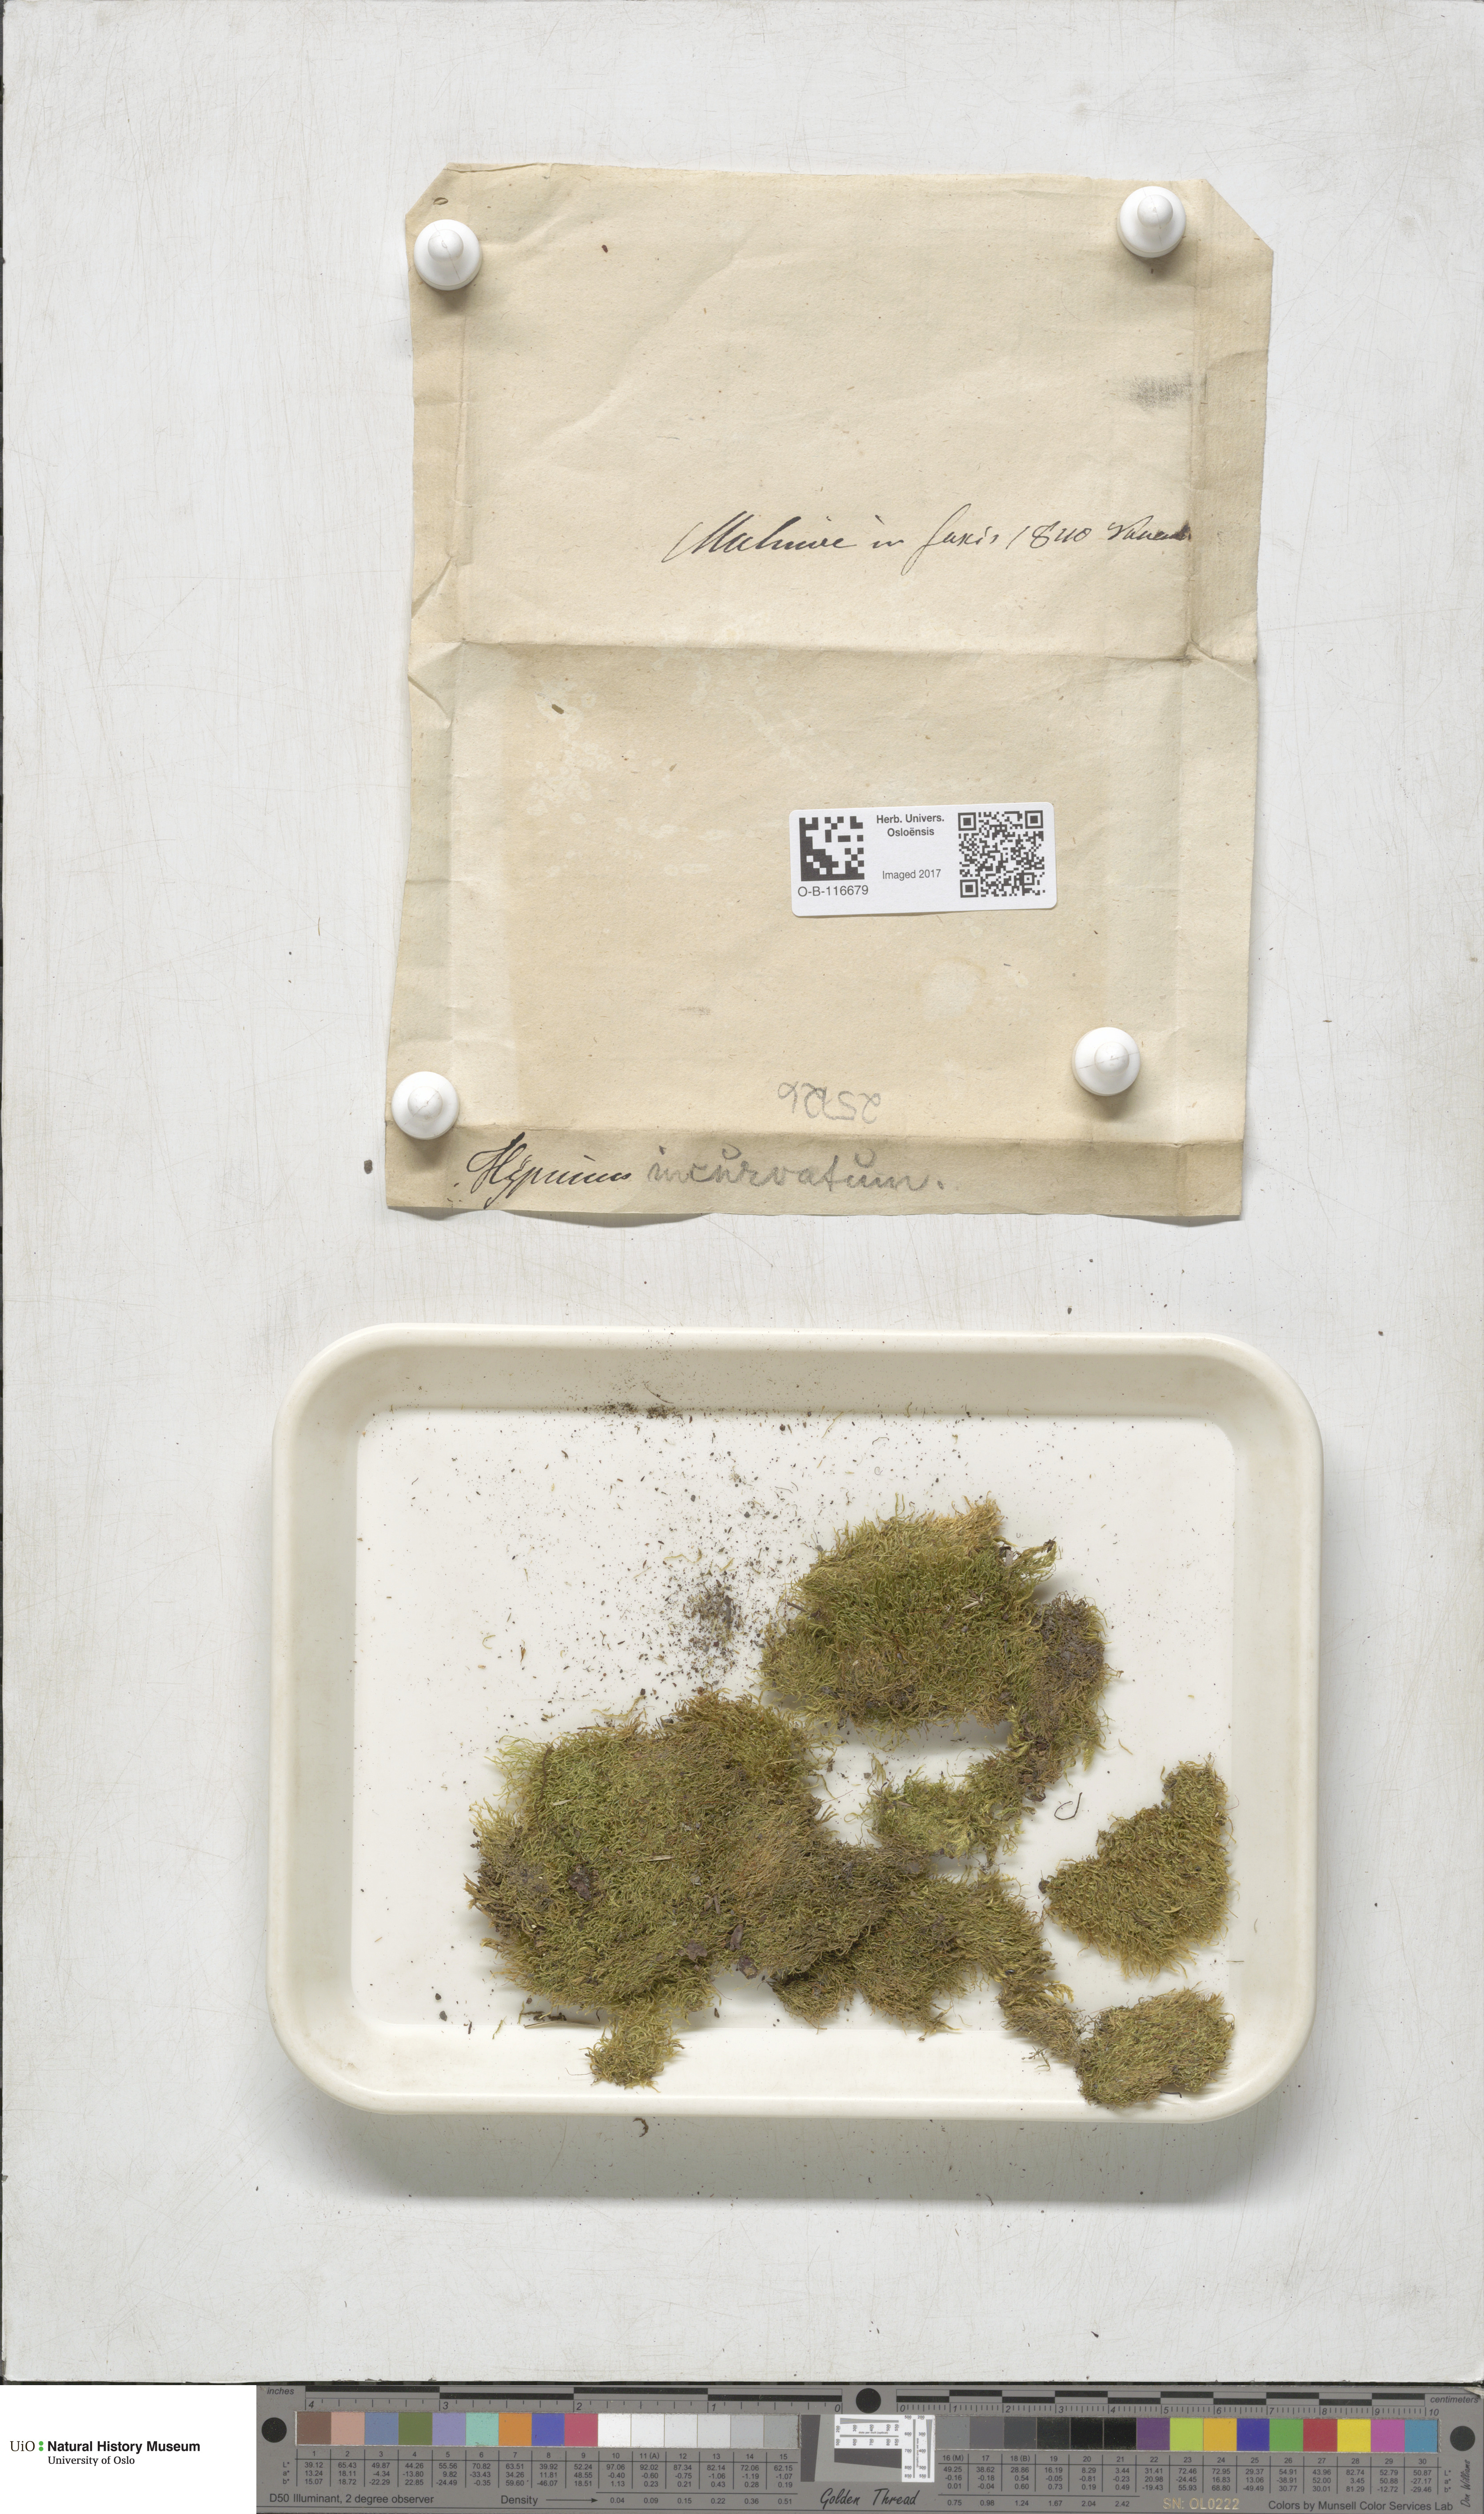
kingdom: Plantae
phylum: Bryophyta
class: Bryopsida
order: Hypnales
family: Pylaisiaceae
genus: Homomallium
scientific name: Homomallium incurvatum
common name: Incurved feather-moss
